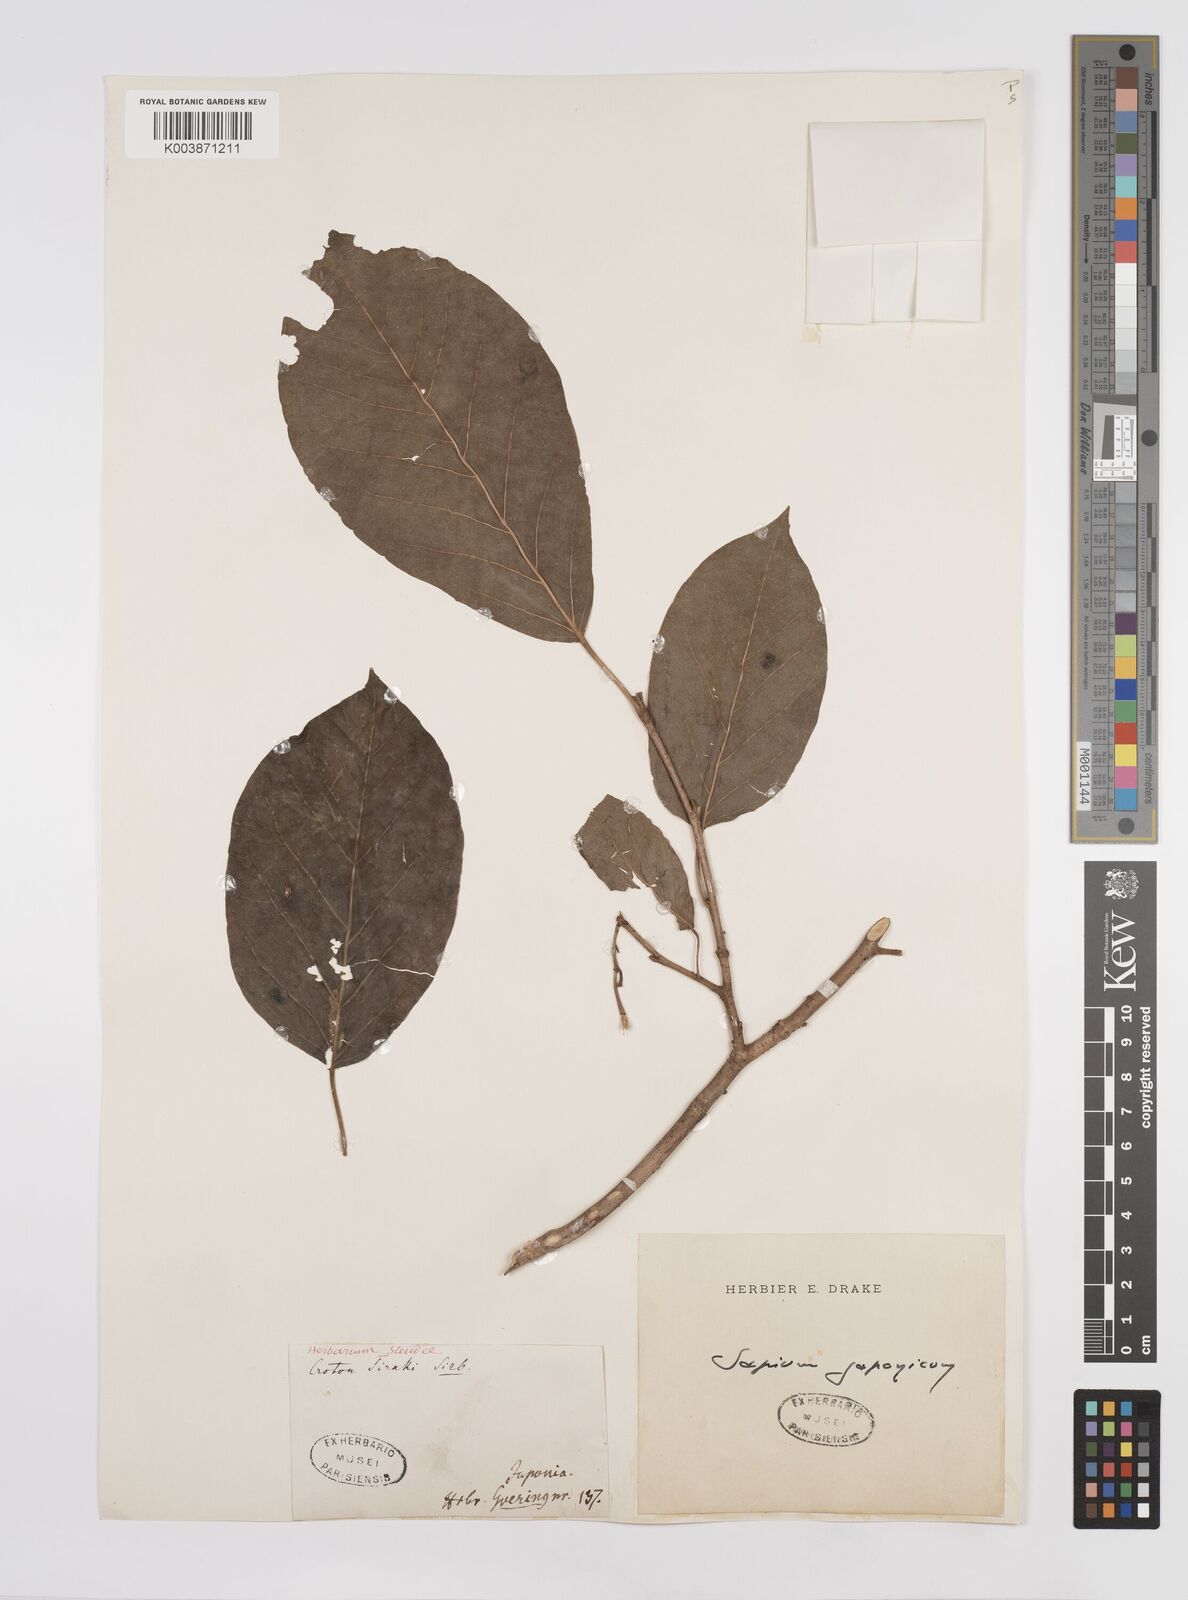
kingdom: Plantae
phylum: Tracheophyta
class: Magnoliopsida
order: Malpighiales
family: Euphorbiaceae
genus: Neoshirakia
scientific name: Neoshirakia japonica
